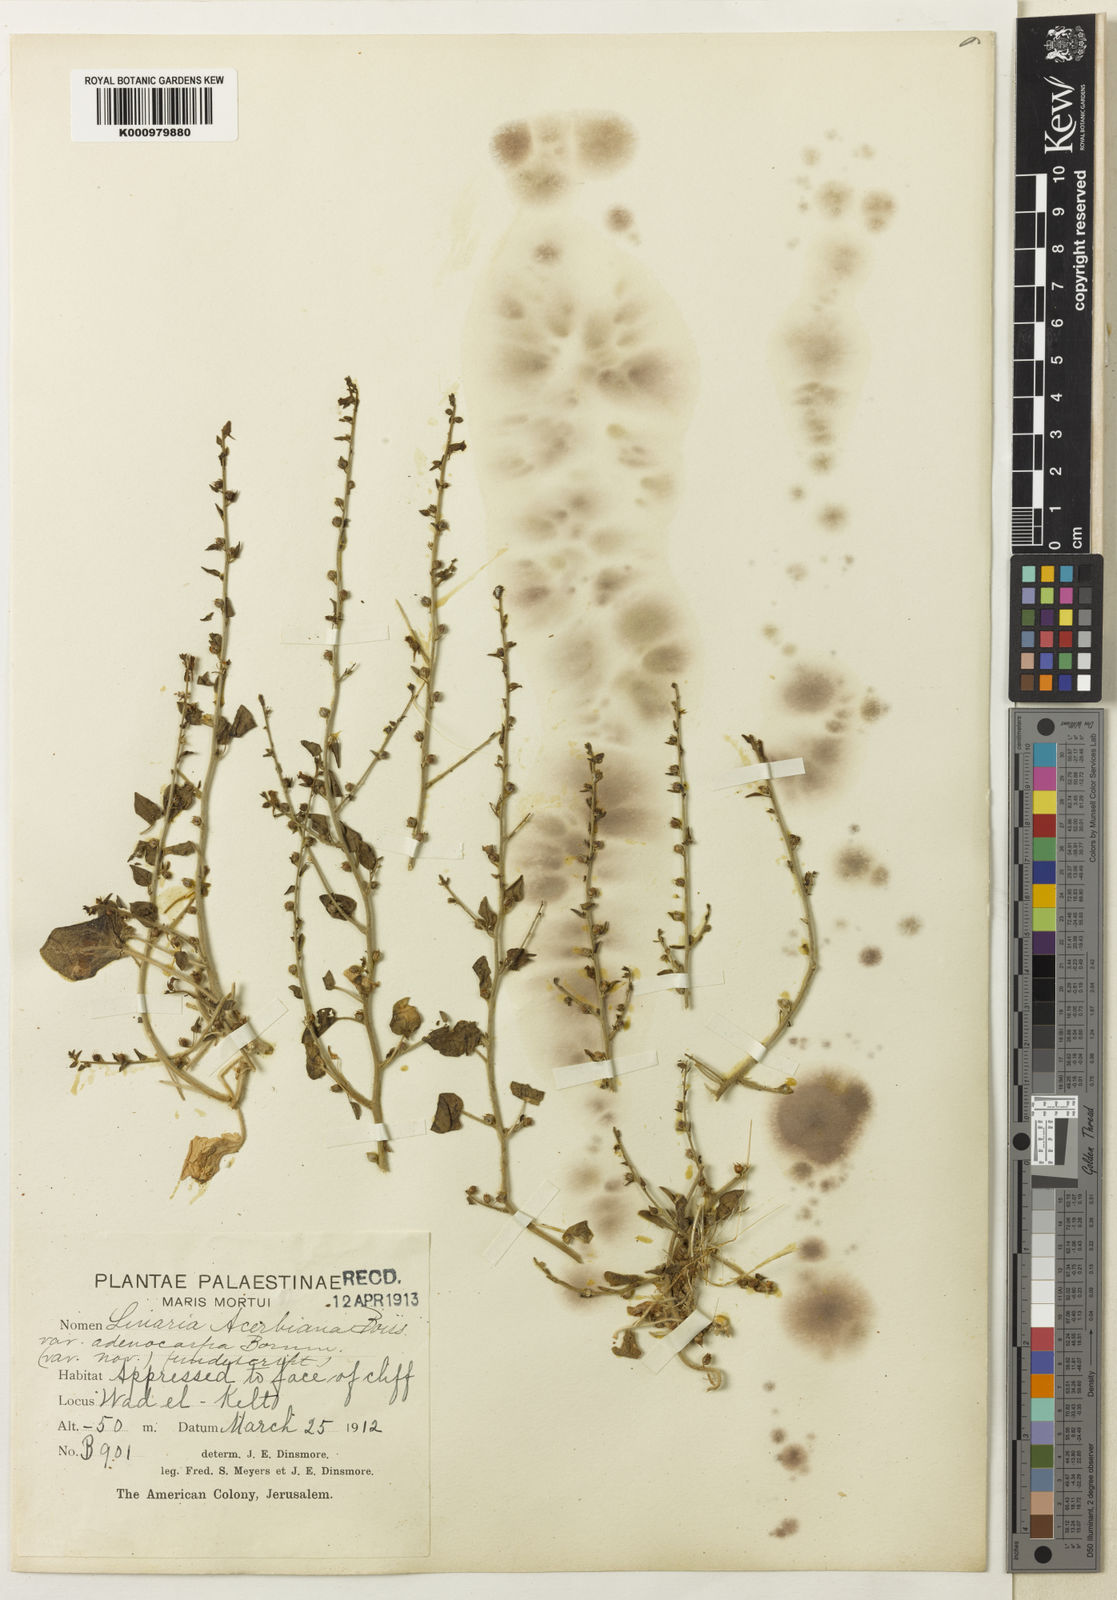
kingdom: Plantae
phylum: Tracheophyta
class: Magnoliopsida
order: Lamiales
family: Plantaginaceae
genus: Nanorrhinum
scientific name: Nanorrhinum acerbianum
